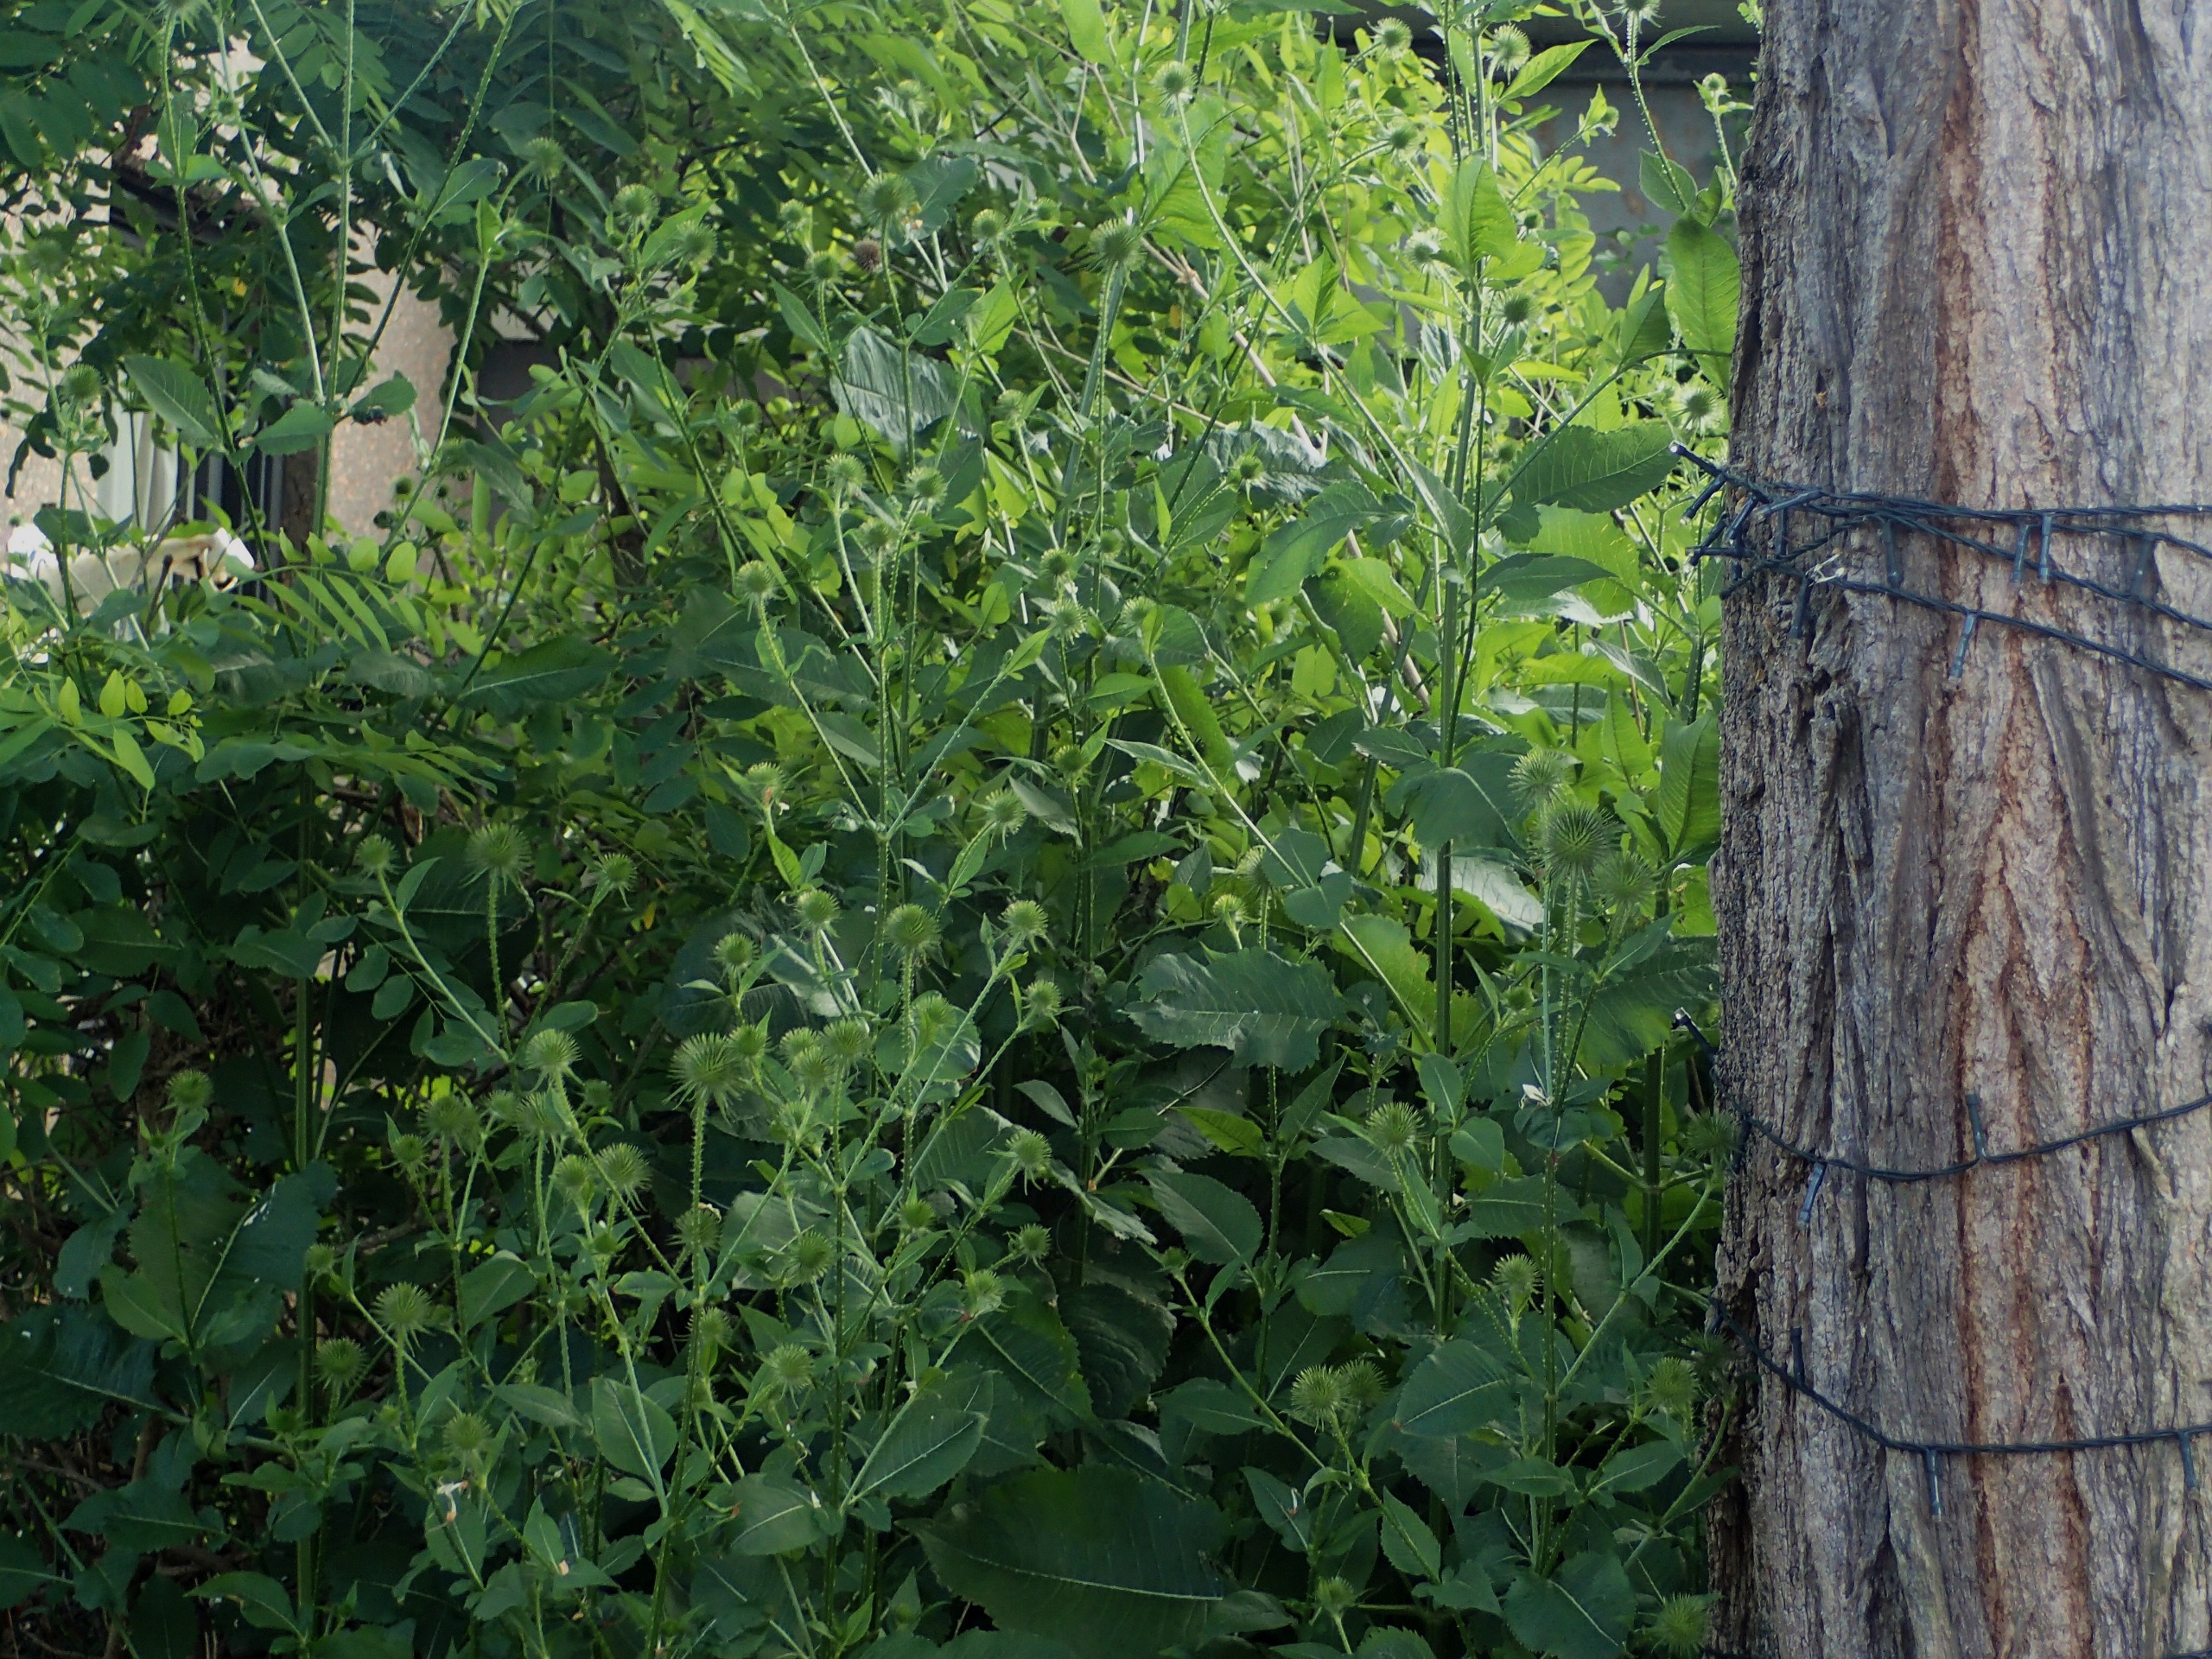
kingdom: Plantae
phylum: Tracheophyta
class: Magnoliopsida
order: Dipsacales
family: Caprifoliaceae
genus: Dipsacus
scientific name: Dipsacus strigosus
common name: Pindsvin-kartebolle
